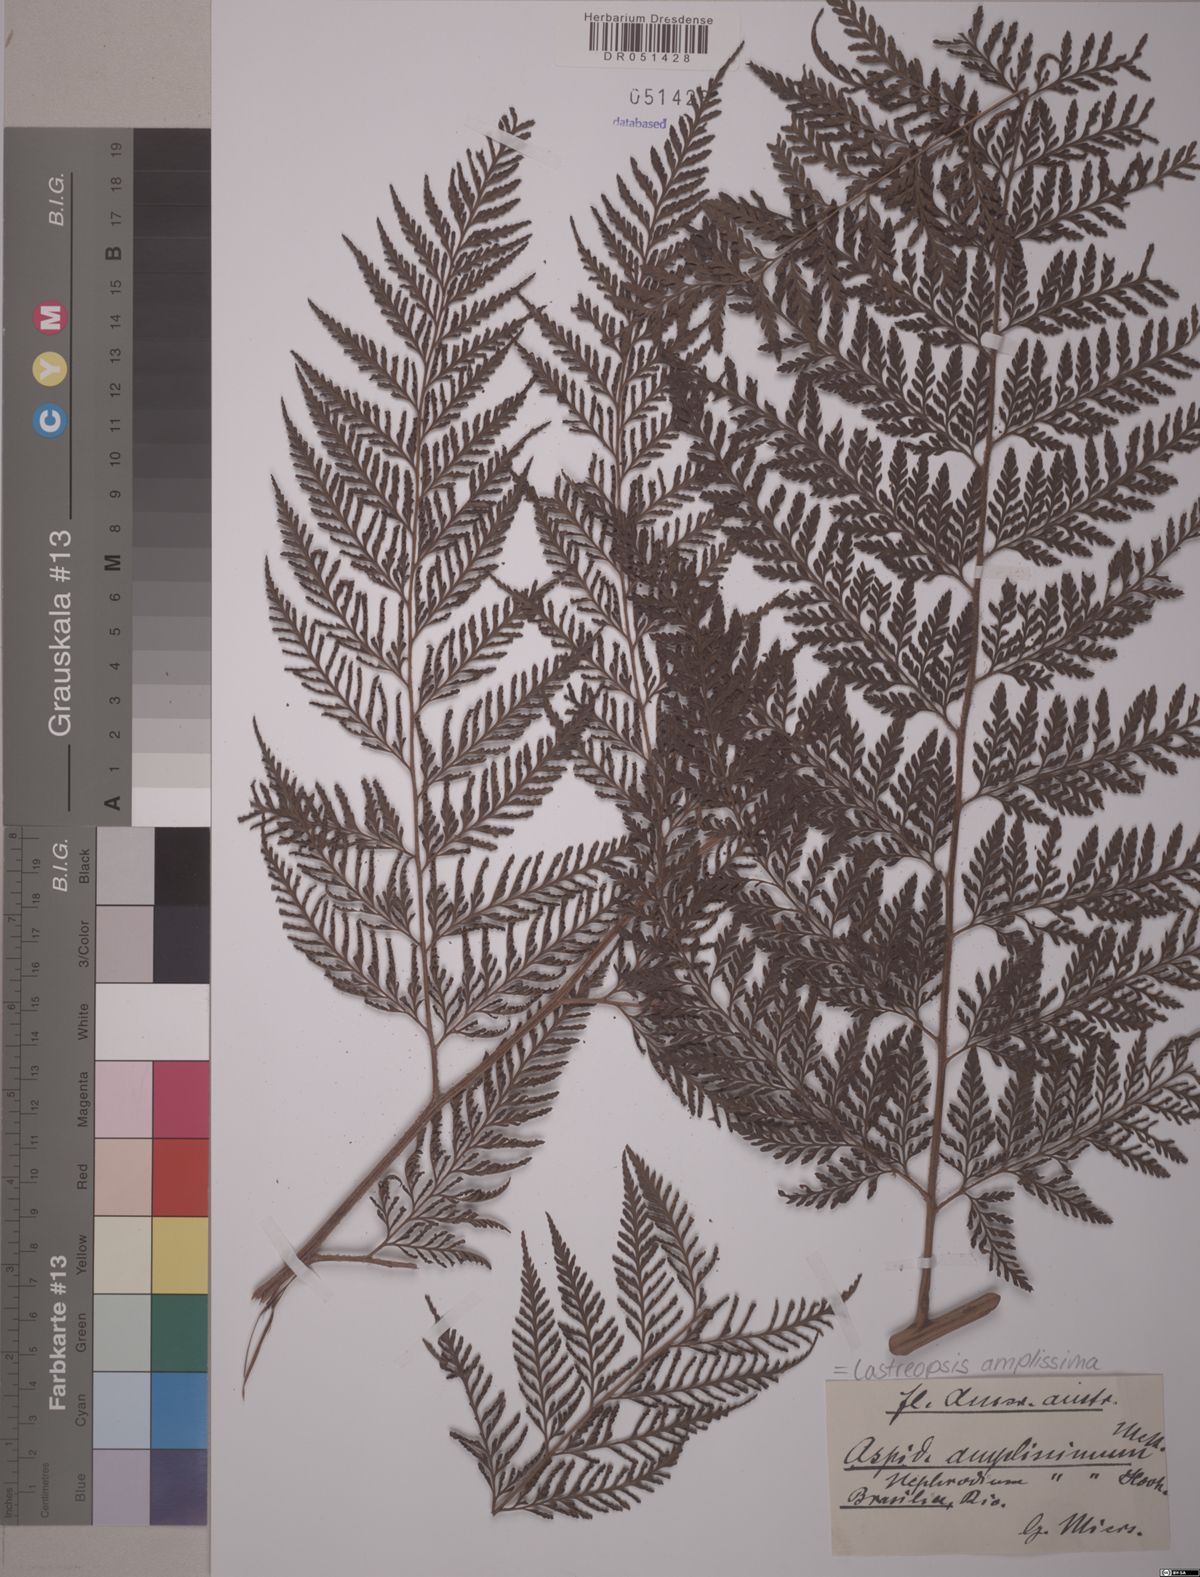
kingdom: Plantae
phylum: Tracheophyta
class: Polypodiopsida
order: Polypodiales
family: Dryopteridaceae
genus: Lastreopsis
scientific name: Lastreopsis amplissima
